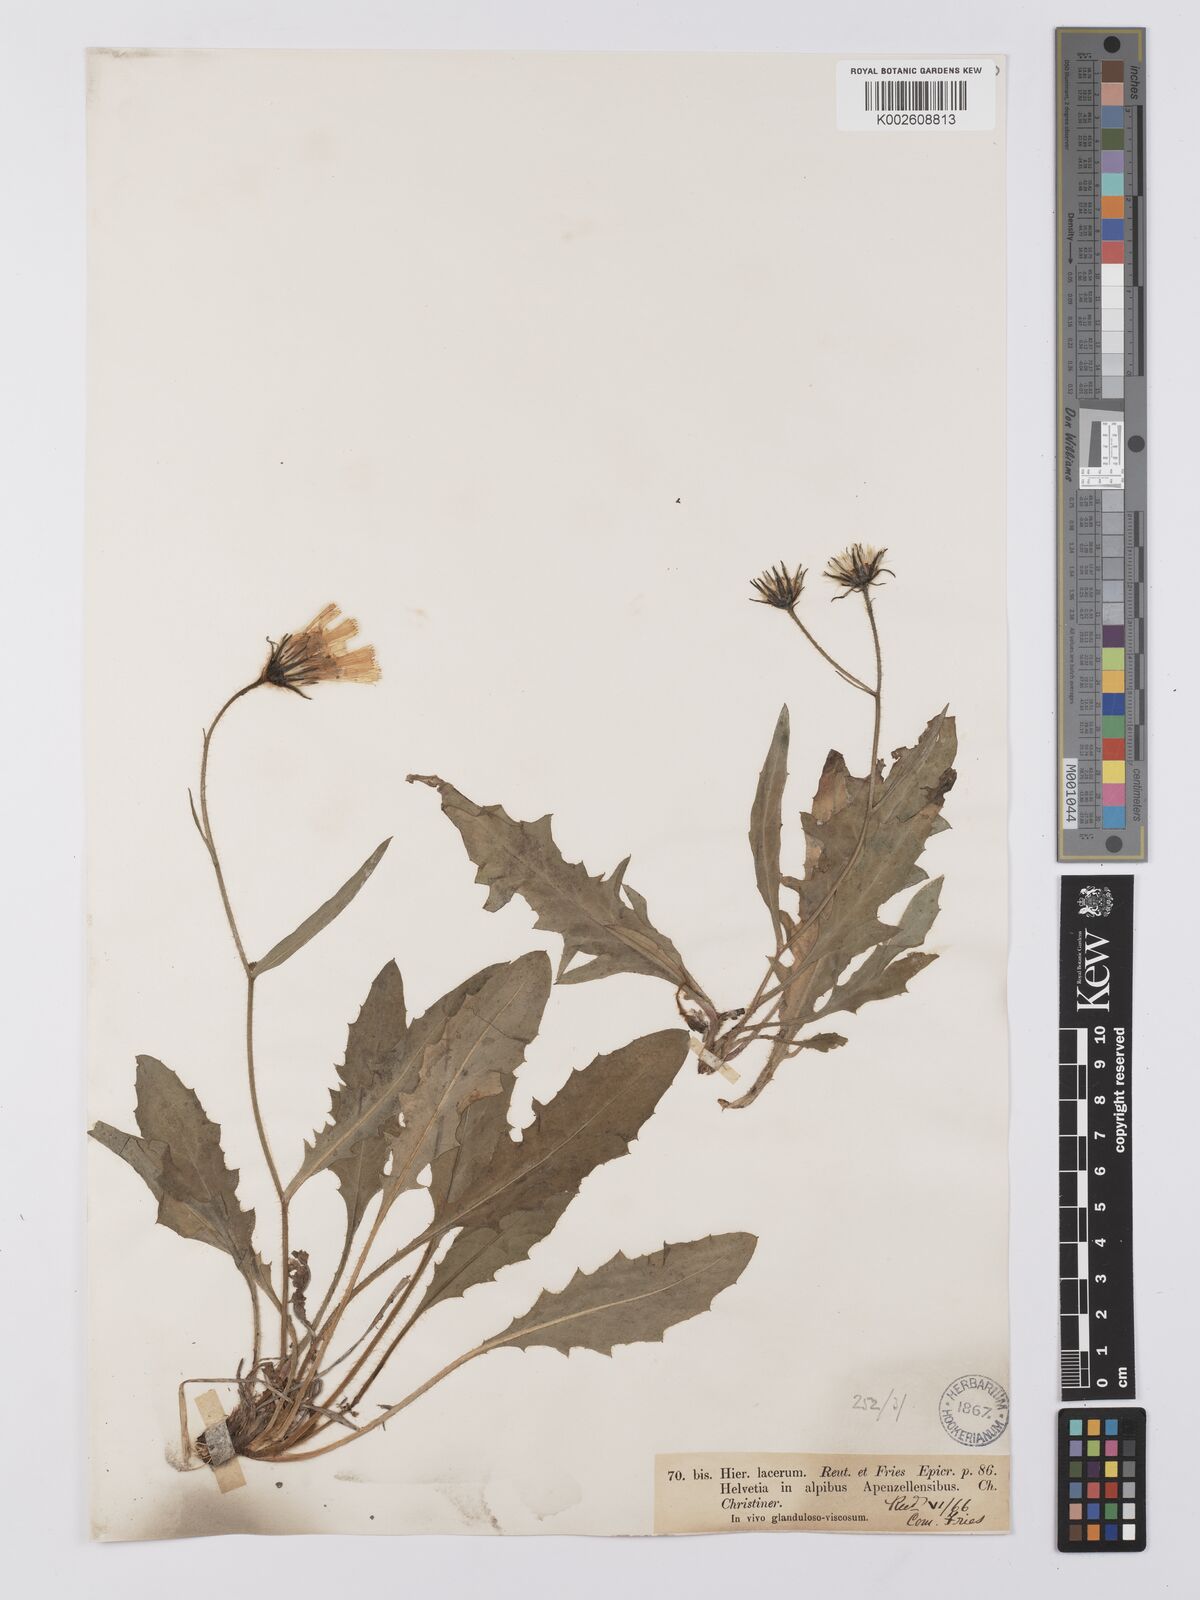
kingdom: Plantae
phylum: Tracheophyta
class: Magnoliopsida
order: Asterales
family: Asteraceae
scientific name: Asteraceae
